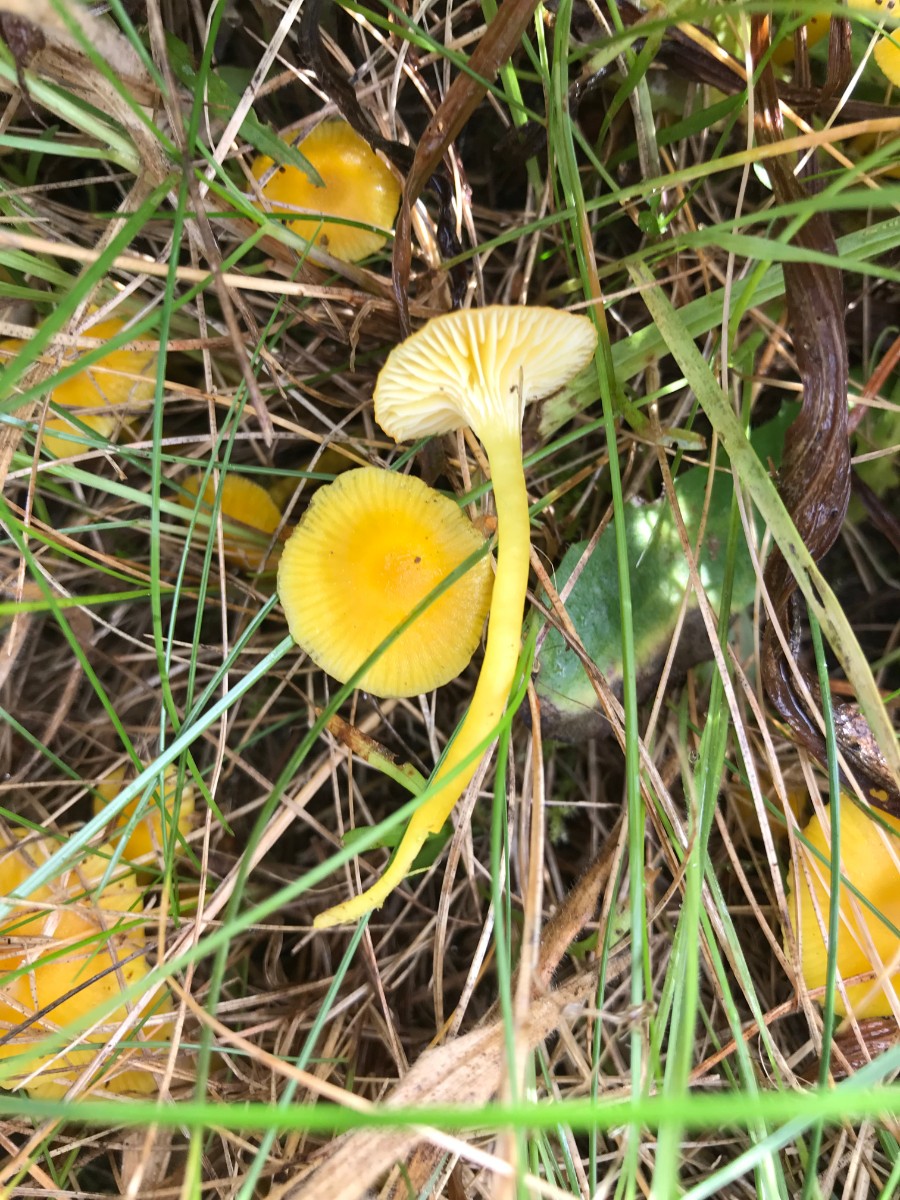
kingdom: Fungi
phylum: Basidiomycota
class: Agaricomycetes
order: Agaricales
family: Hygrophoraceae
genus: Hygrocybe
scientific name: Hygrocybe ceracea
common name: voksgul vokshat
